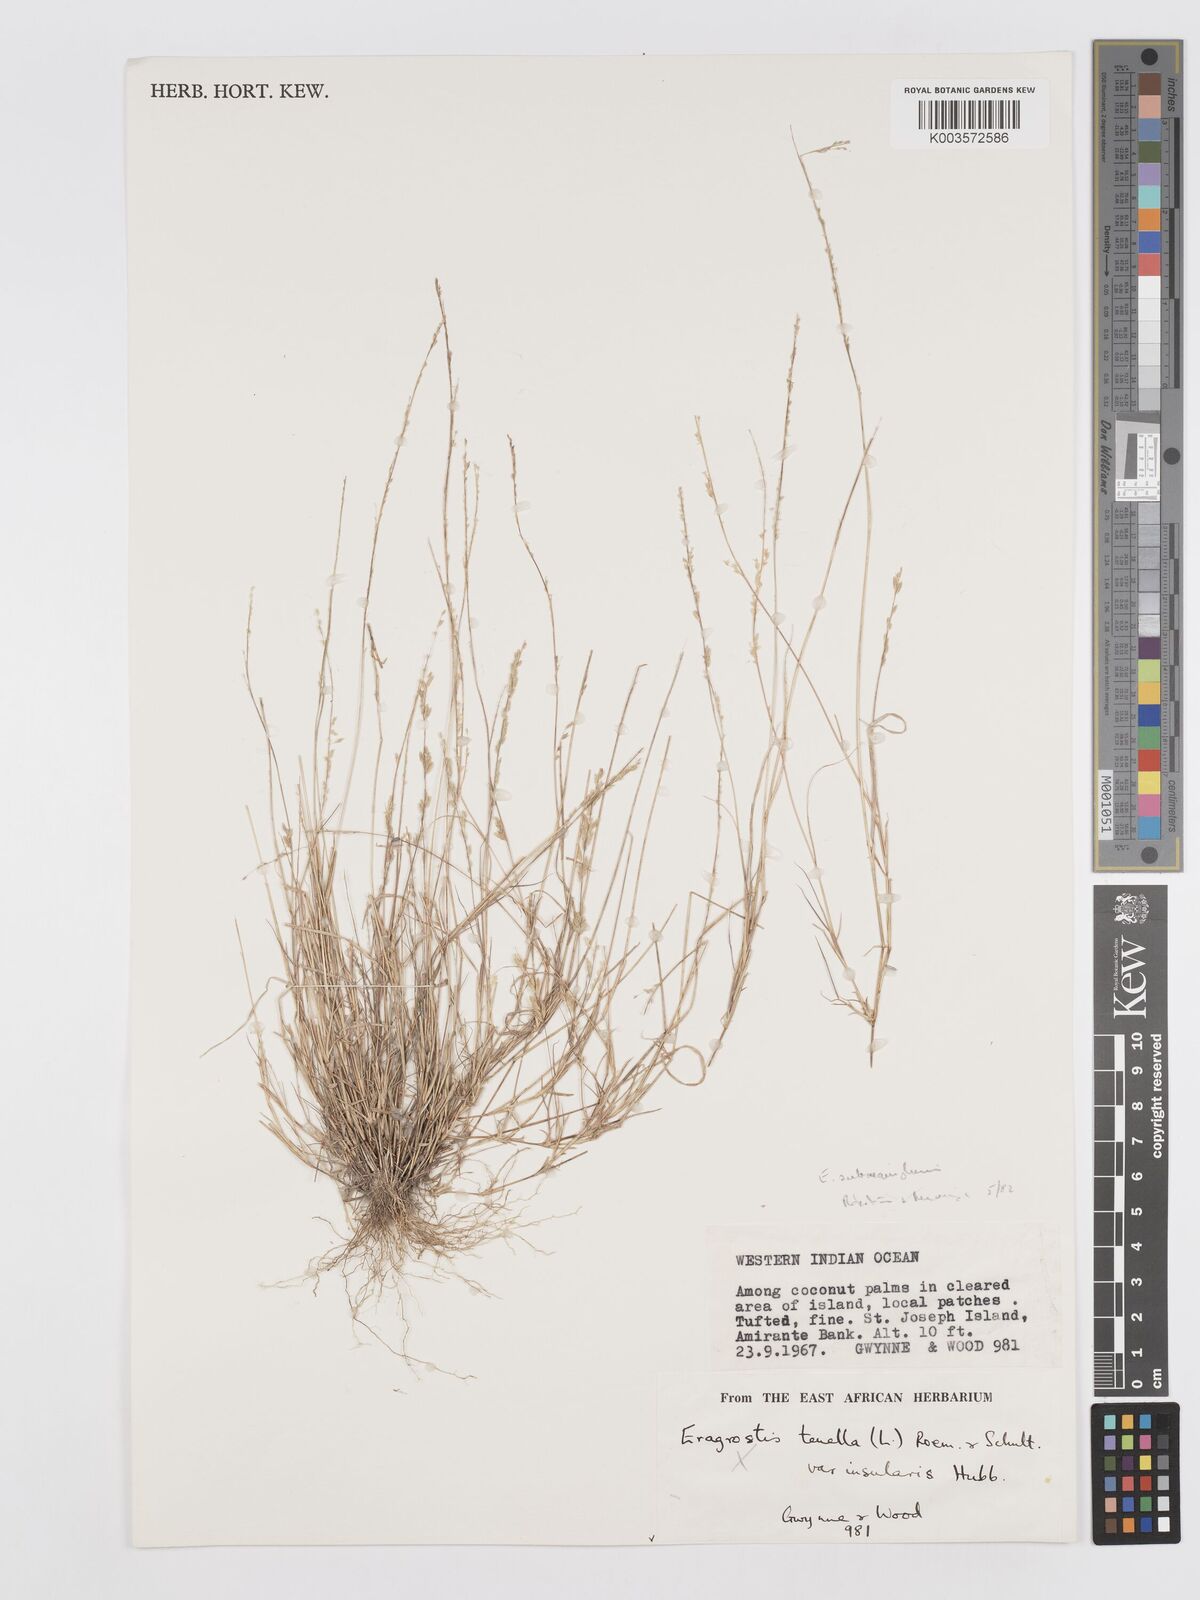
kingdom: Plantae
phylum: Tracheophyta
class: Liliopsida
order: Poales
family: Poaceae
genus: Eragrostis
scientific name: Eragrostis subaequiglumis
